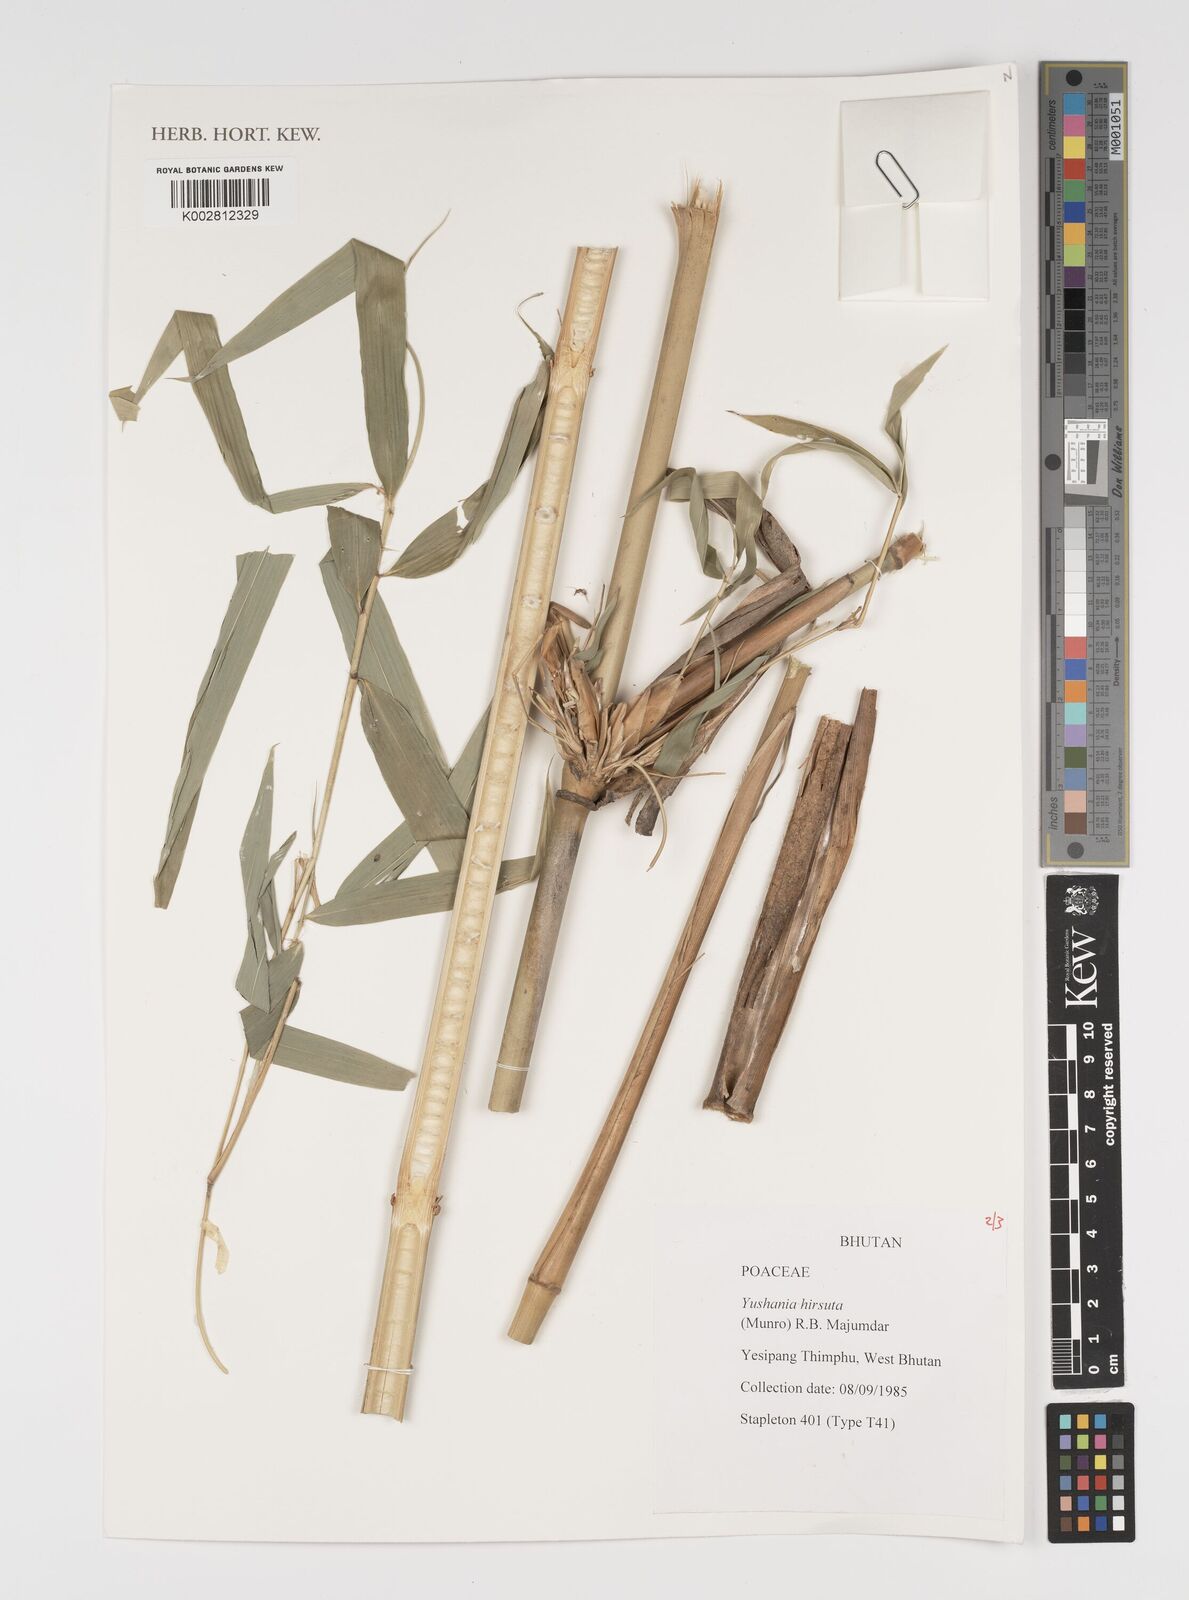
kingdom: Plantae
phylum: Tracheophyta
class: Liliopsida
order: Poales
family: Poaceae
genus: Yushania
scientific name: Yushania hirsuta
